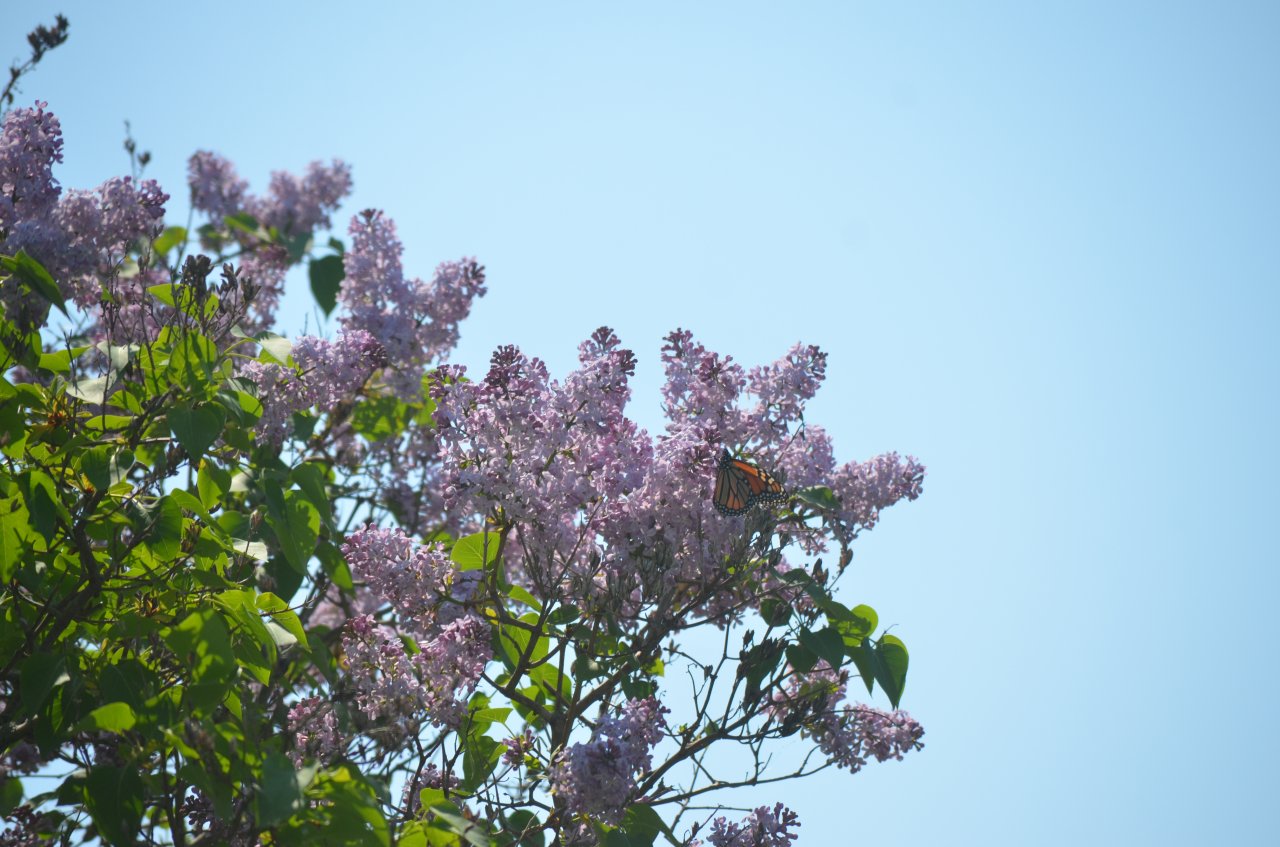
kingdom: Animalia
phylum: Arthropoda
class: Insecta
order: Lepidoptera
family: Nymphalidae
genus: Danaus
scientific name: Danaus plexippus
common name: Monarch
